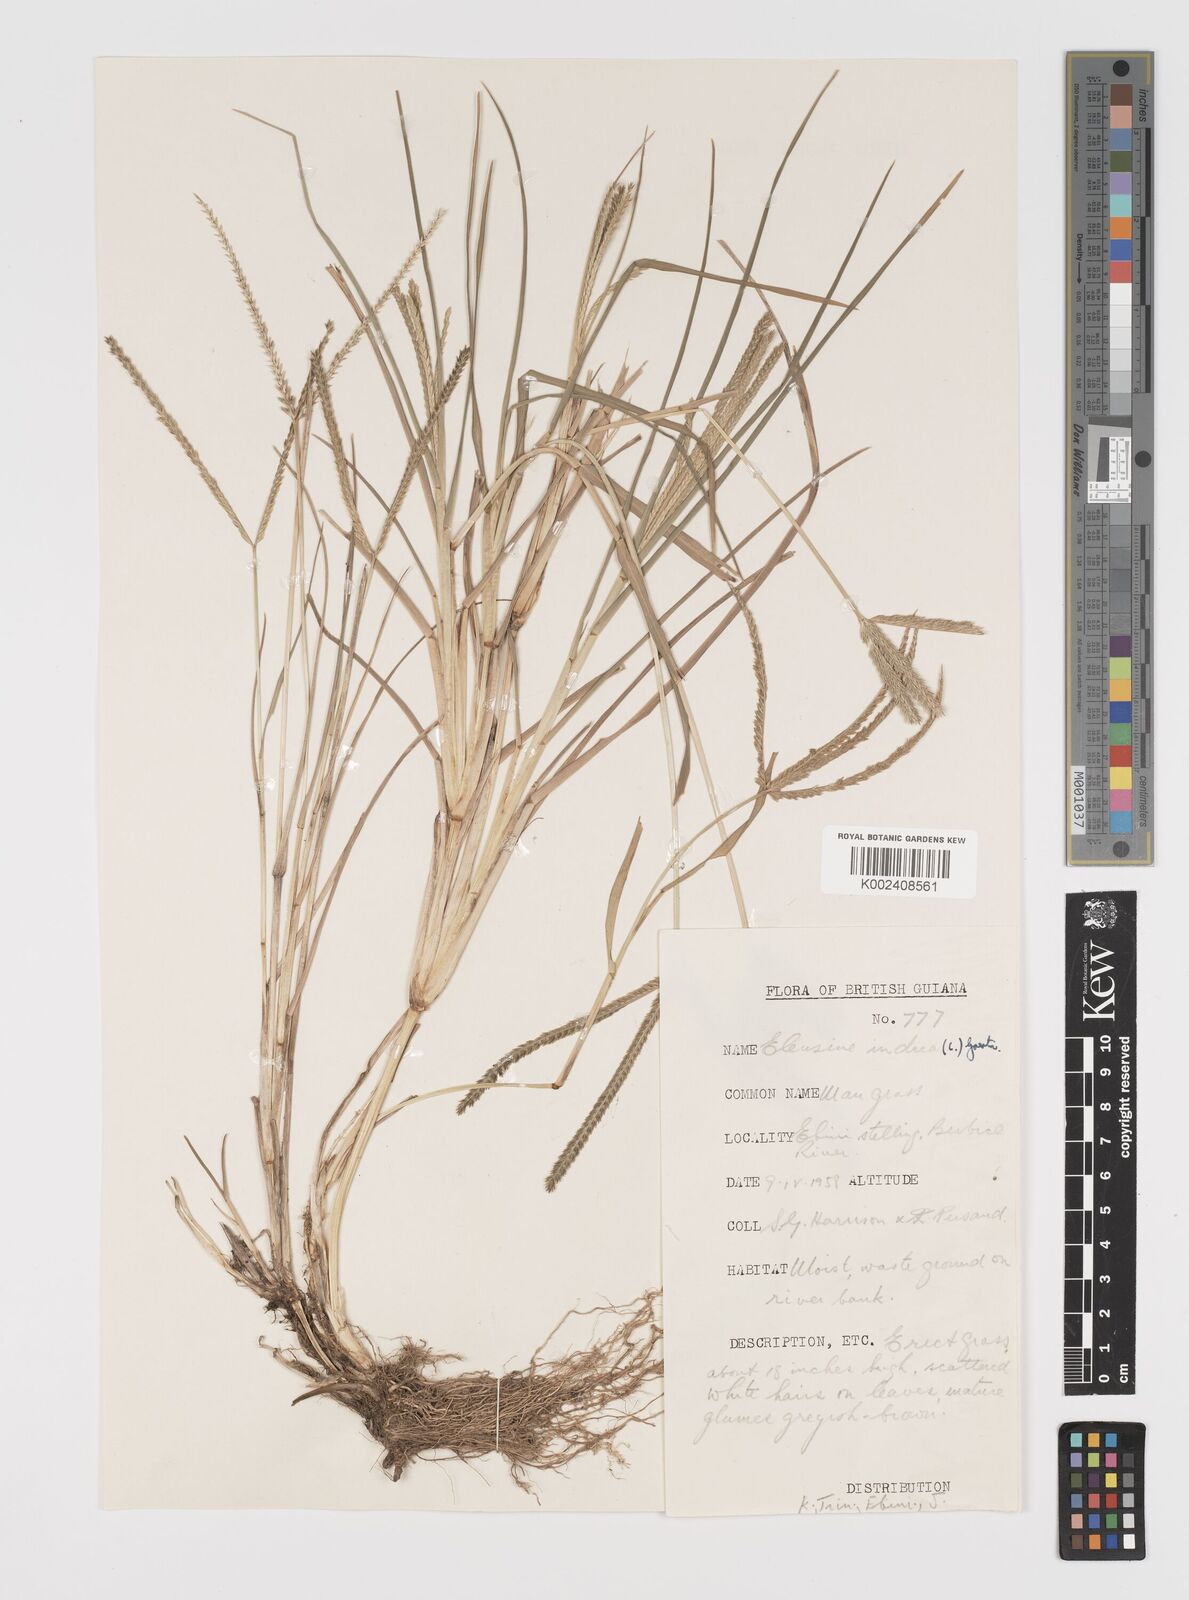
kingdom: Plantae
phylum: Tracheophyta
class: Liliopsida
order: Poales
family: Poaceae
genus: Eleusine
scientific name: Eleusine indica
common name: Yard-grass
